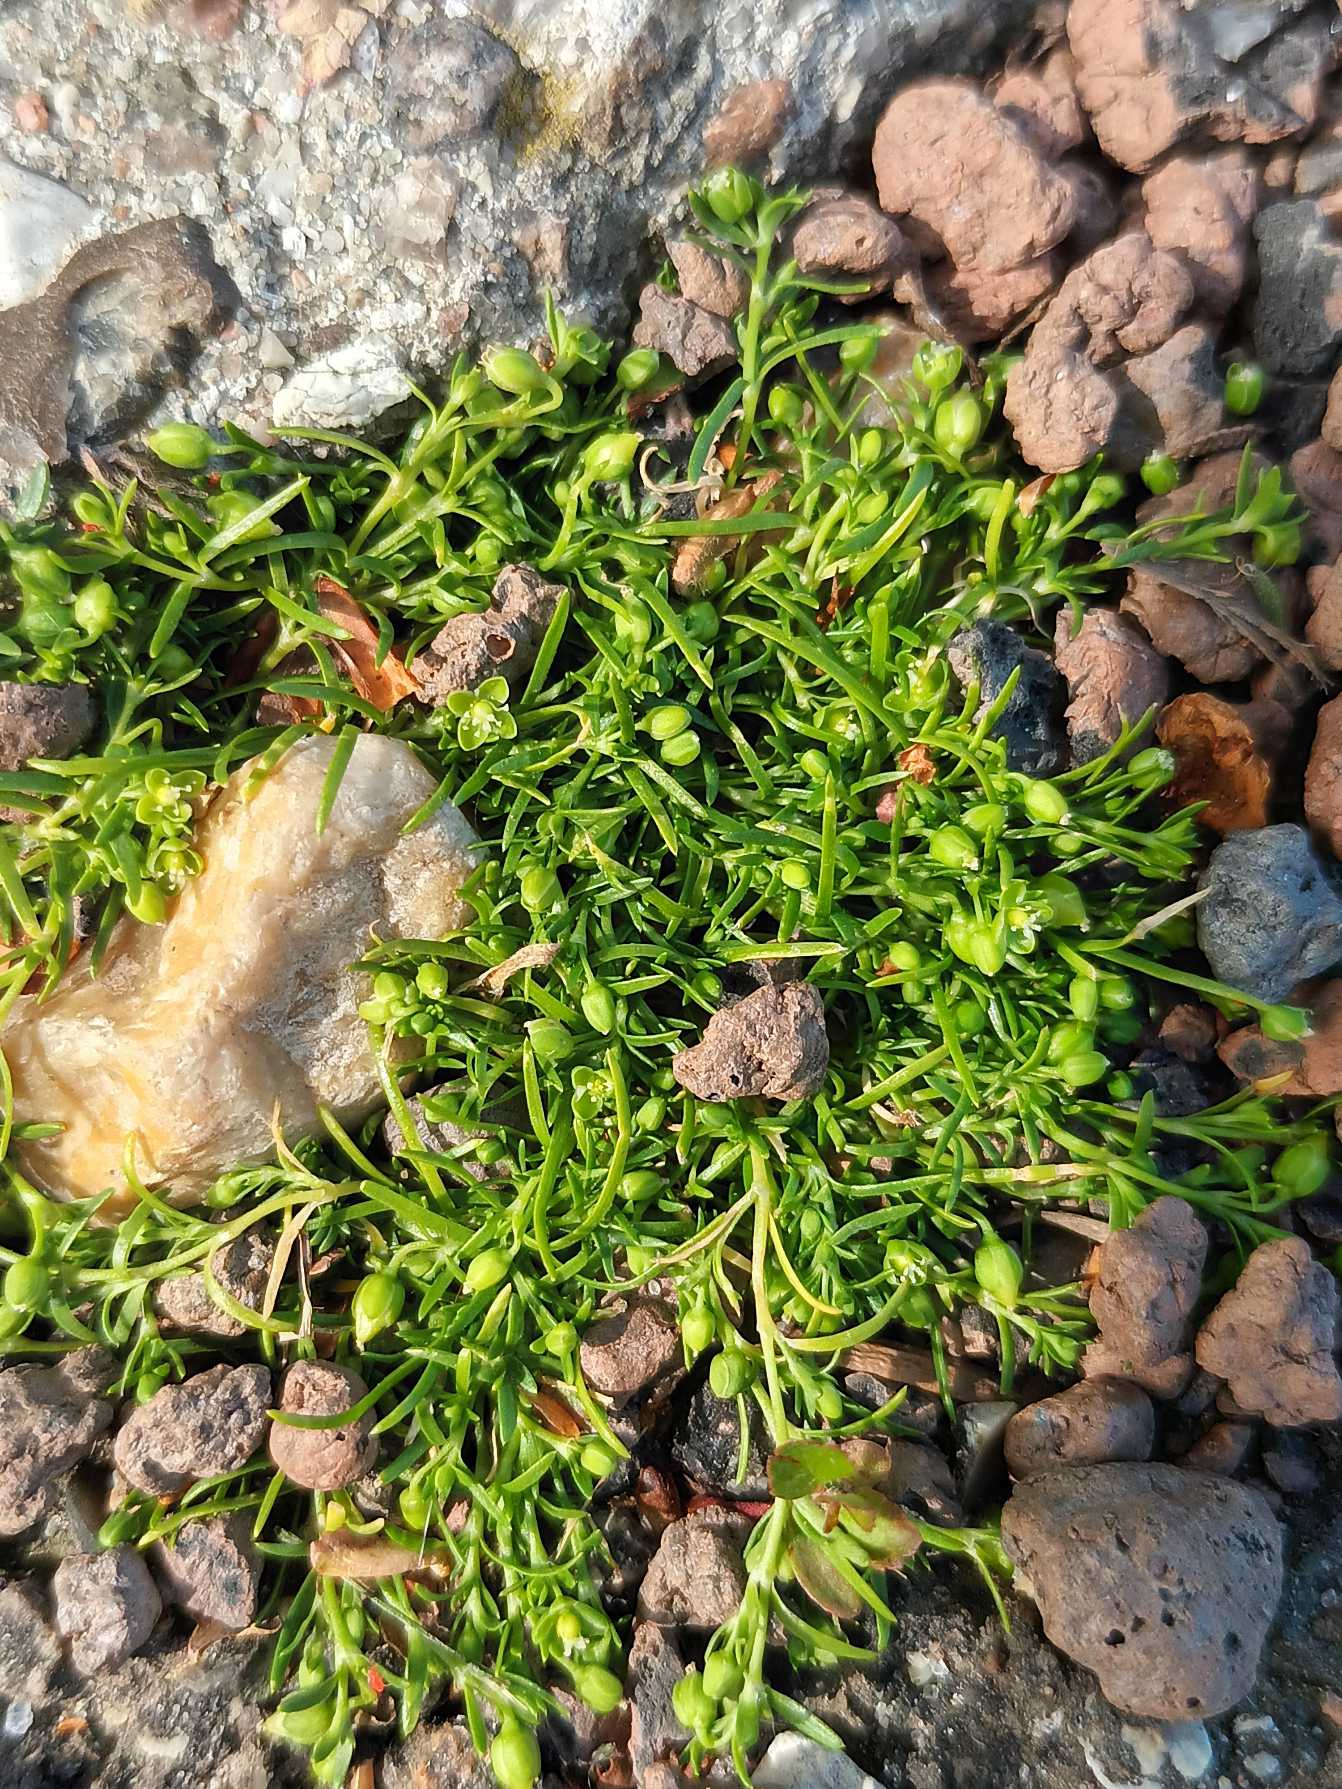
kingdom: Plantae
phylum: Tracheophyta
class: Magnoliopsida
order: Caryophyllales
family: Caryophyllaceae
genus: Sagina
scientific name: Sagina procumbens
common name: Almindelig firling
